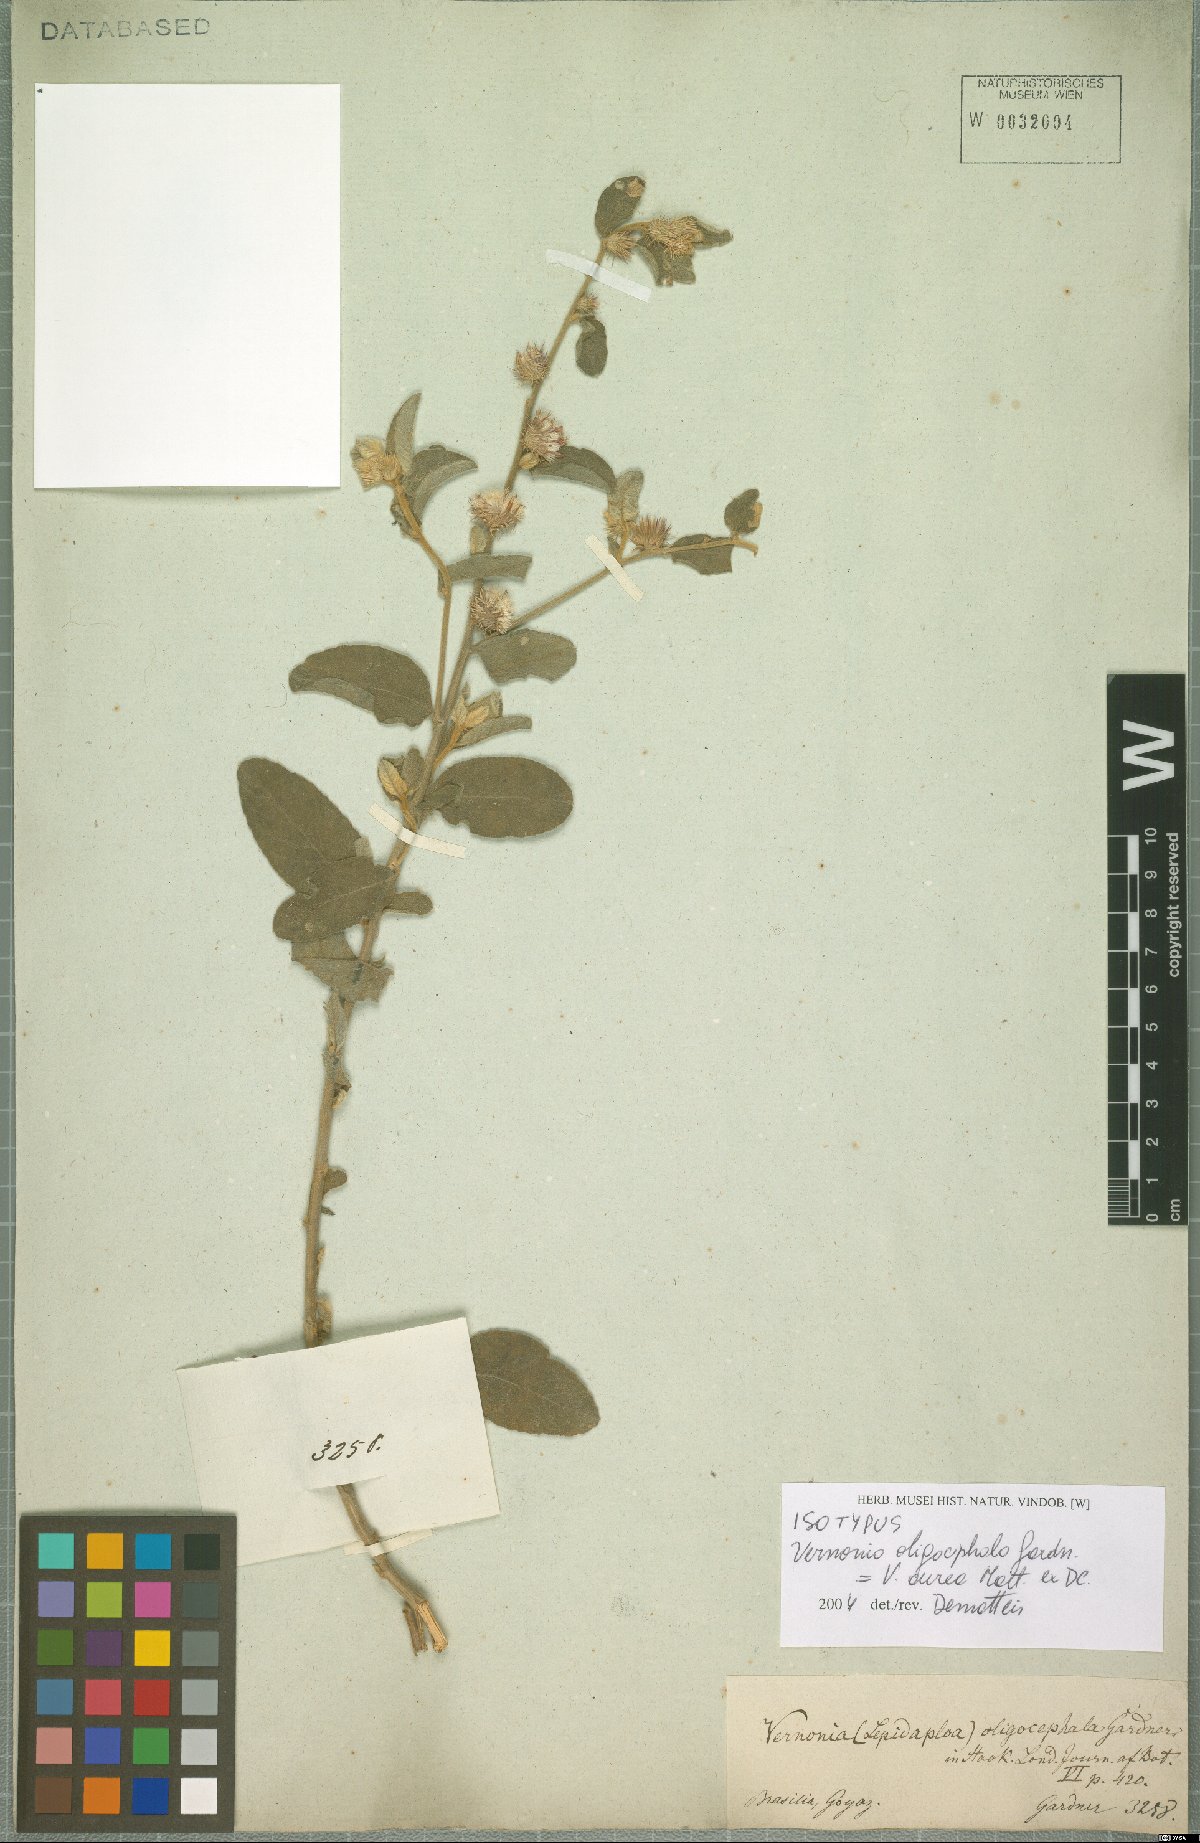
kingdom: Plantae
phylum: Tracheophyta
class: Magnoliopsida
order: Asterales
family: Asteraceae
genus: Lepidaploa
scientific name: Lepidaploa aurea
